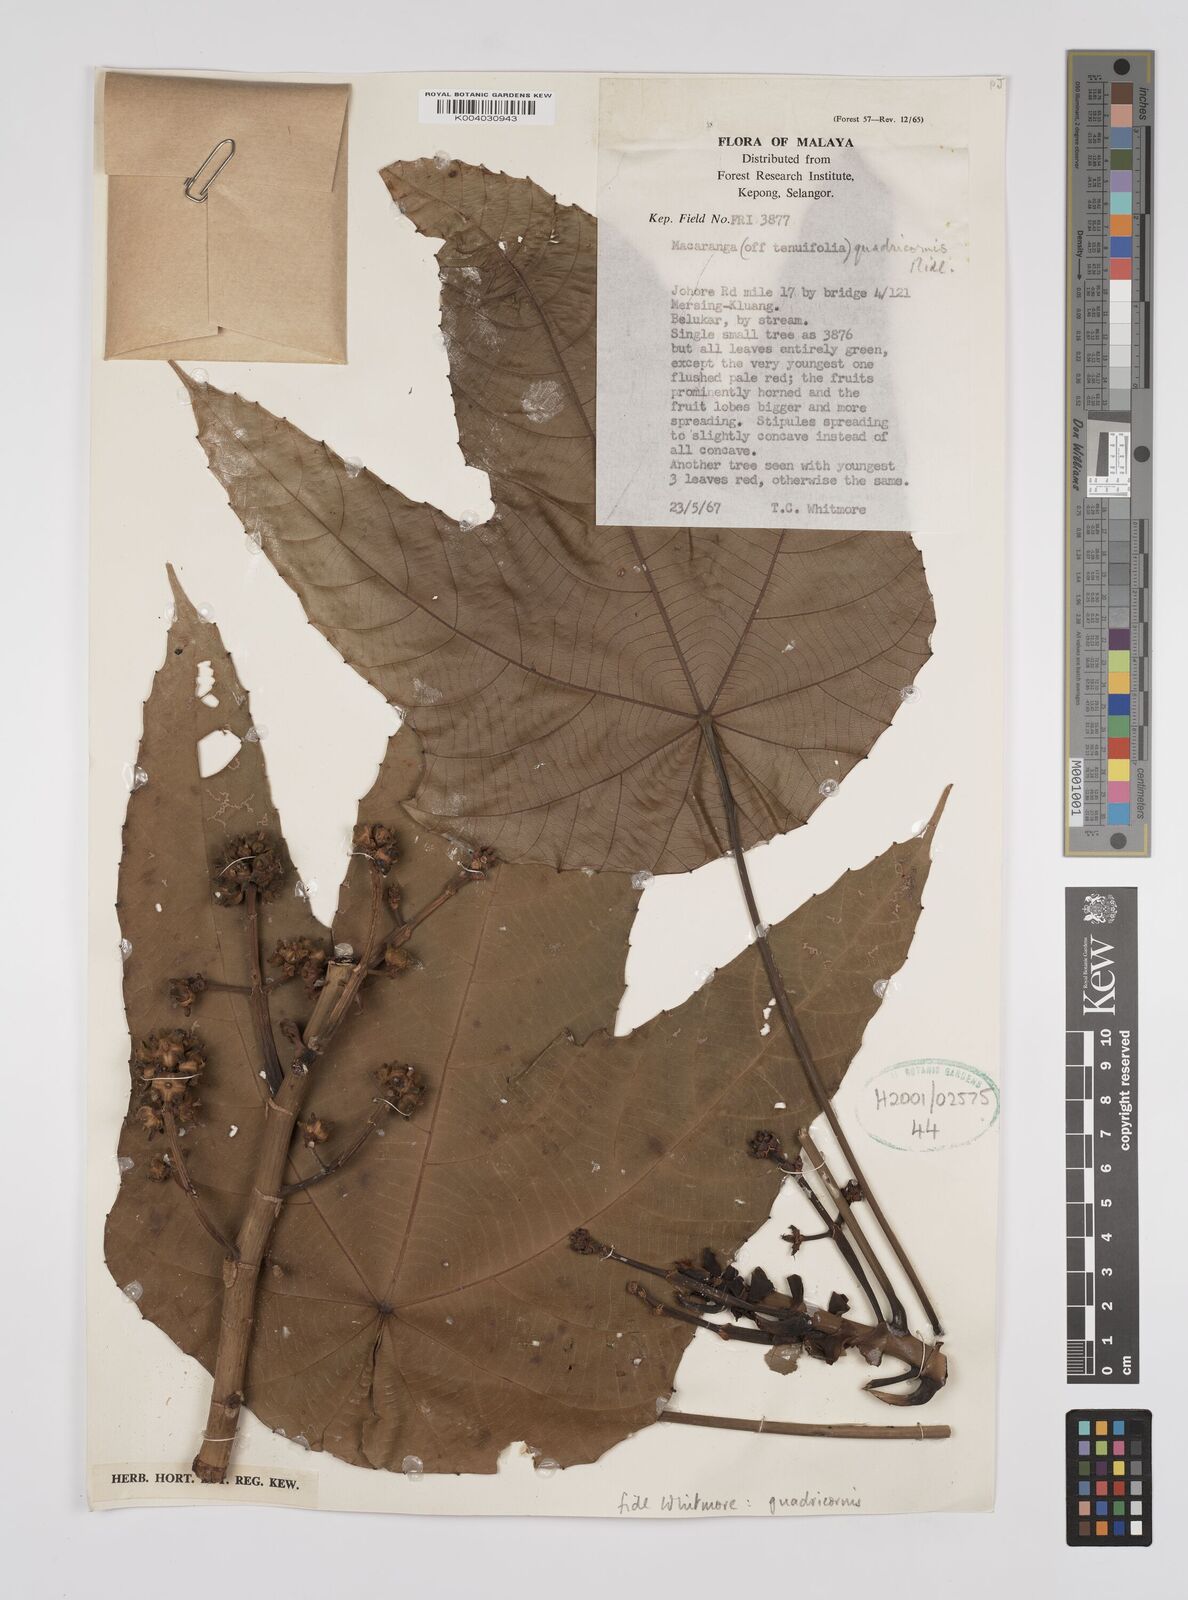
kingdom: Plantae
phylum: Tracheophyta
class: Magnoliopsida
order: Malpighiales
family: Euphorbiaceae
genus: Macaranga
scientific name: Macaranga triloba
